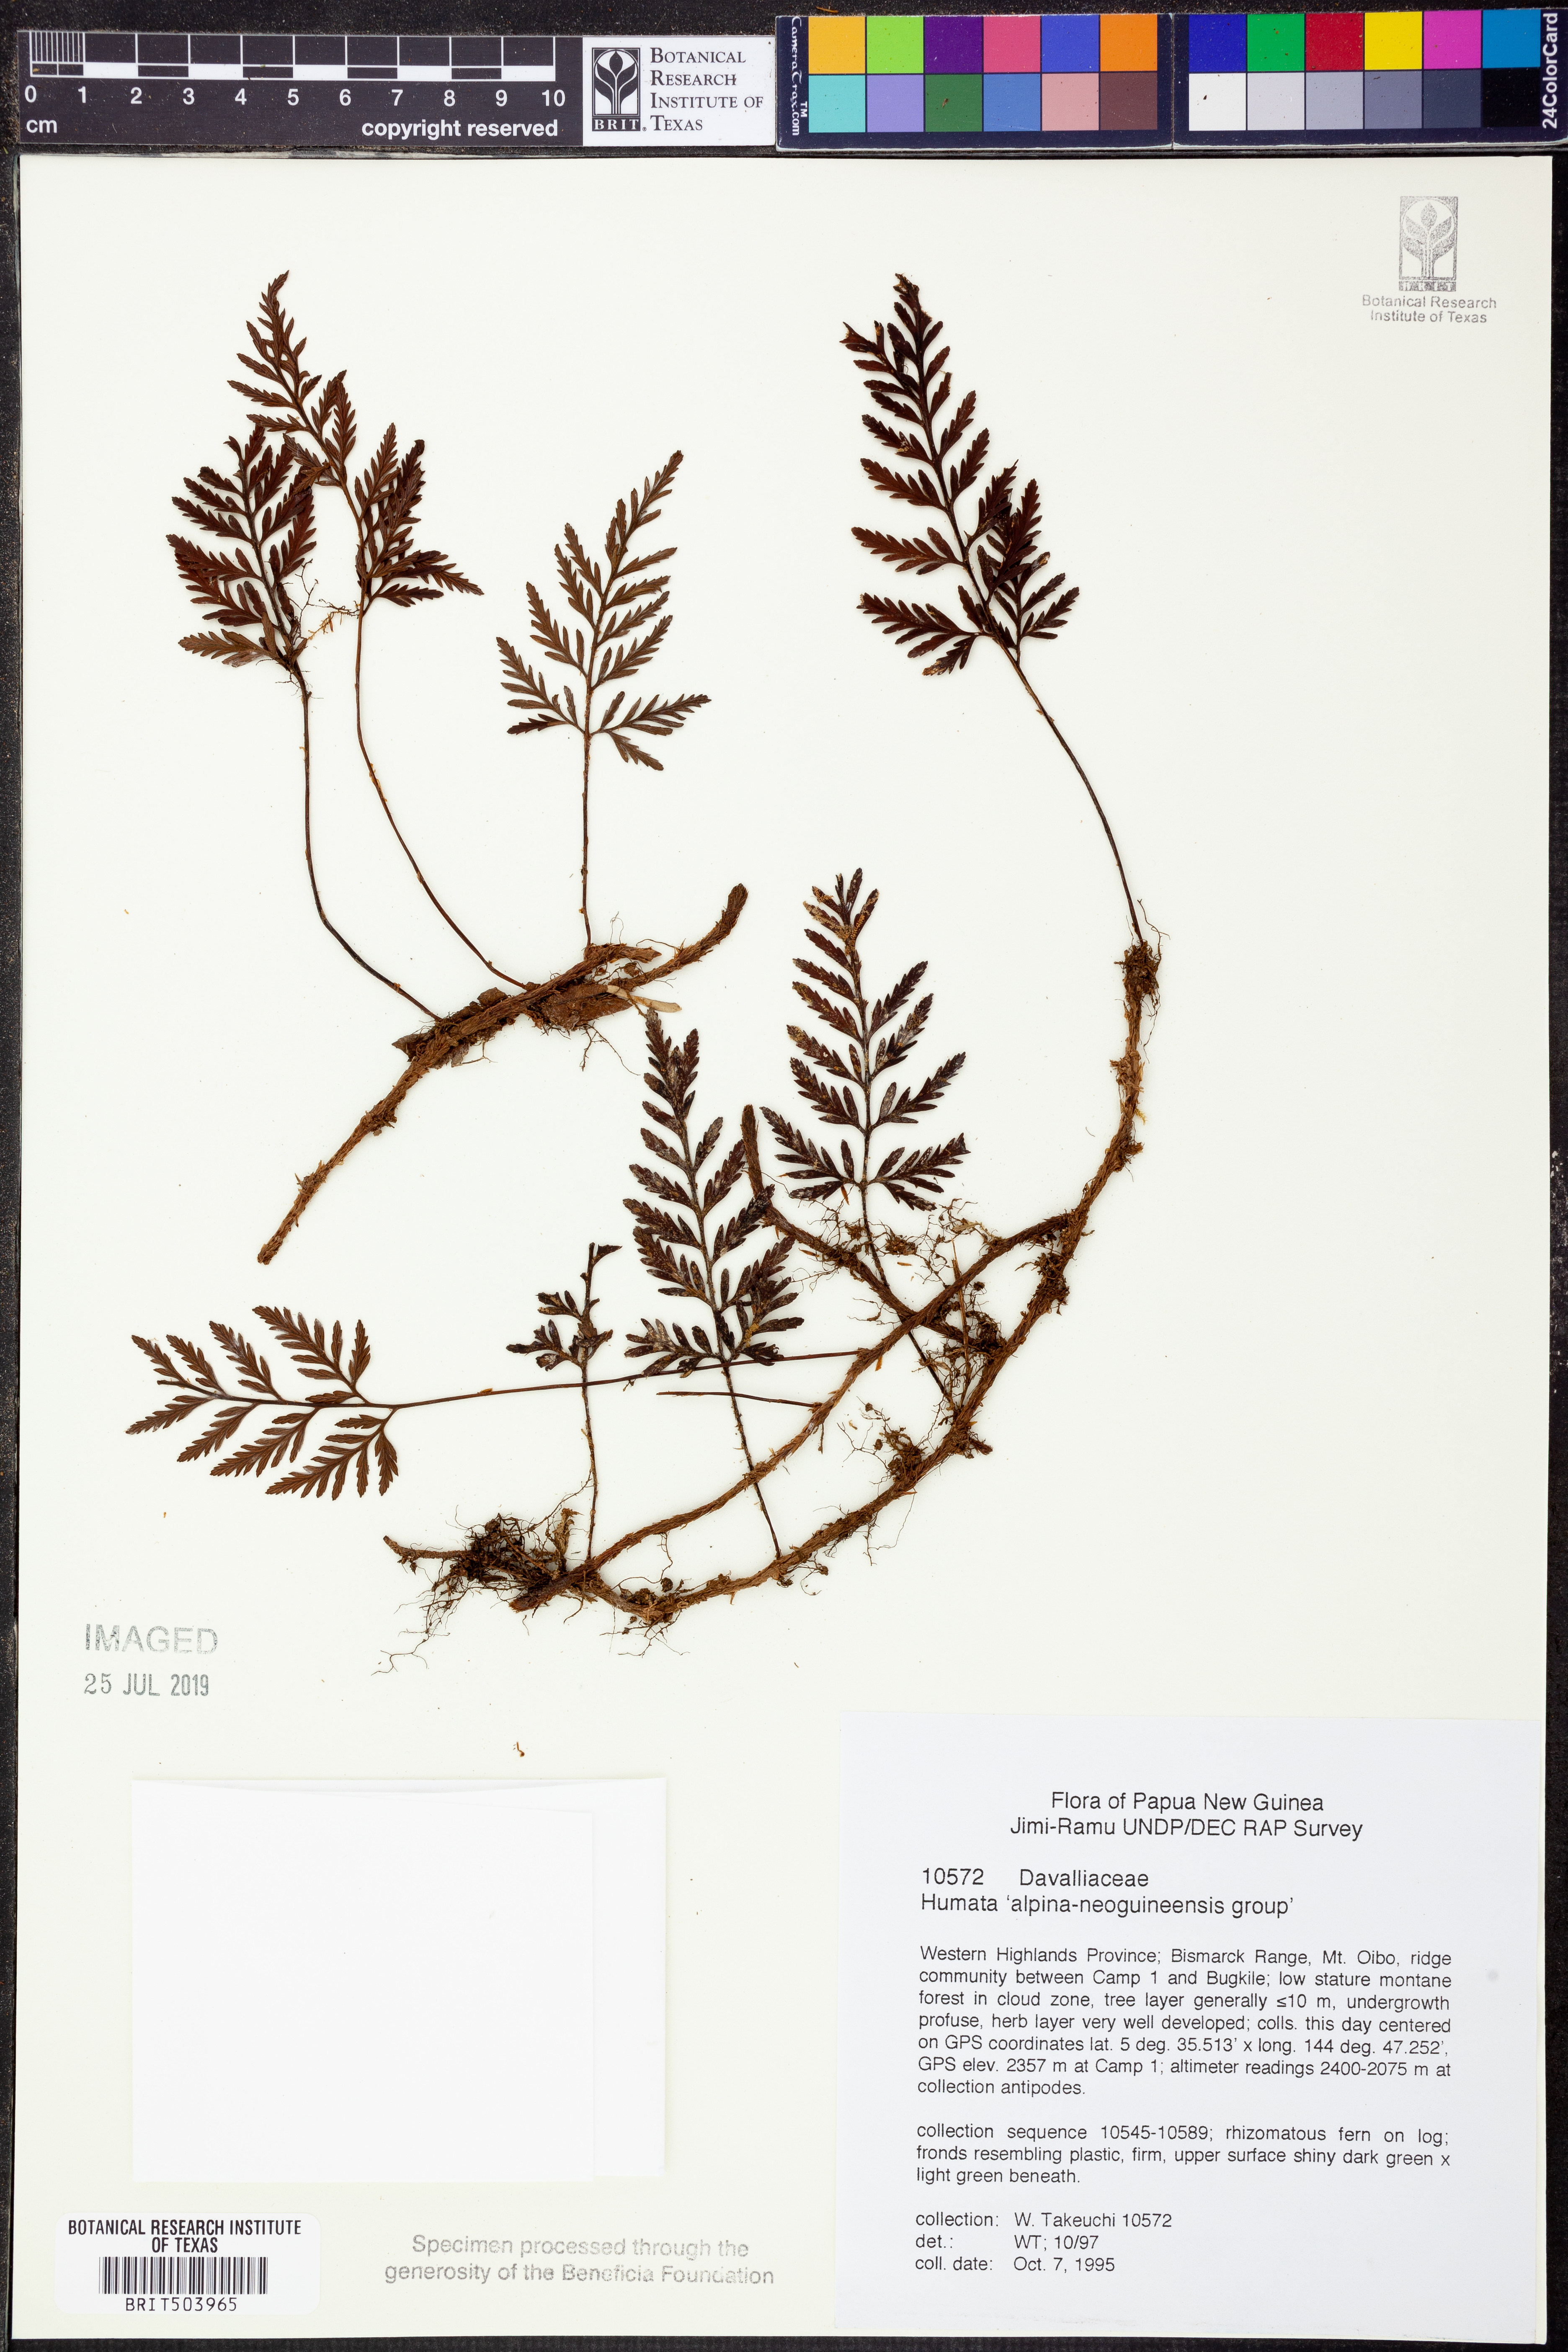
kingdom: Plantae
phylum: Tracheophyta
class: Polypodiopsida
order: Polypodiales
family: Davalliaceae
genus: Davallia
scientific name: Davallia
